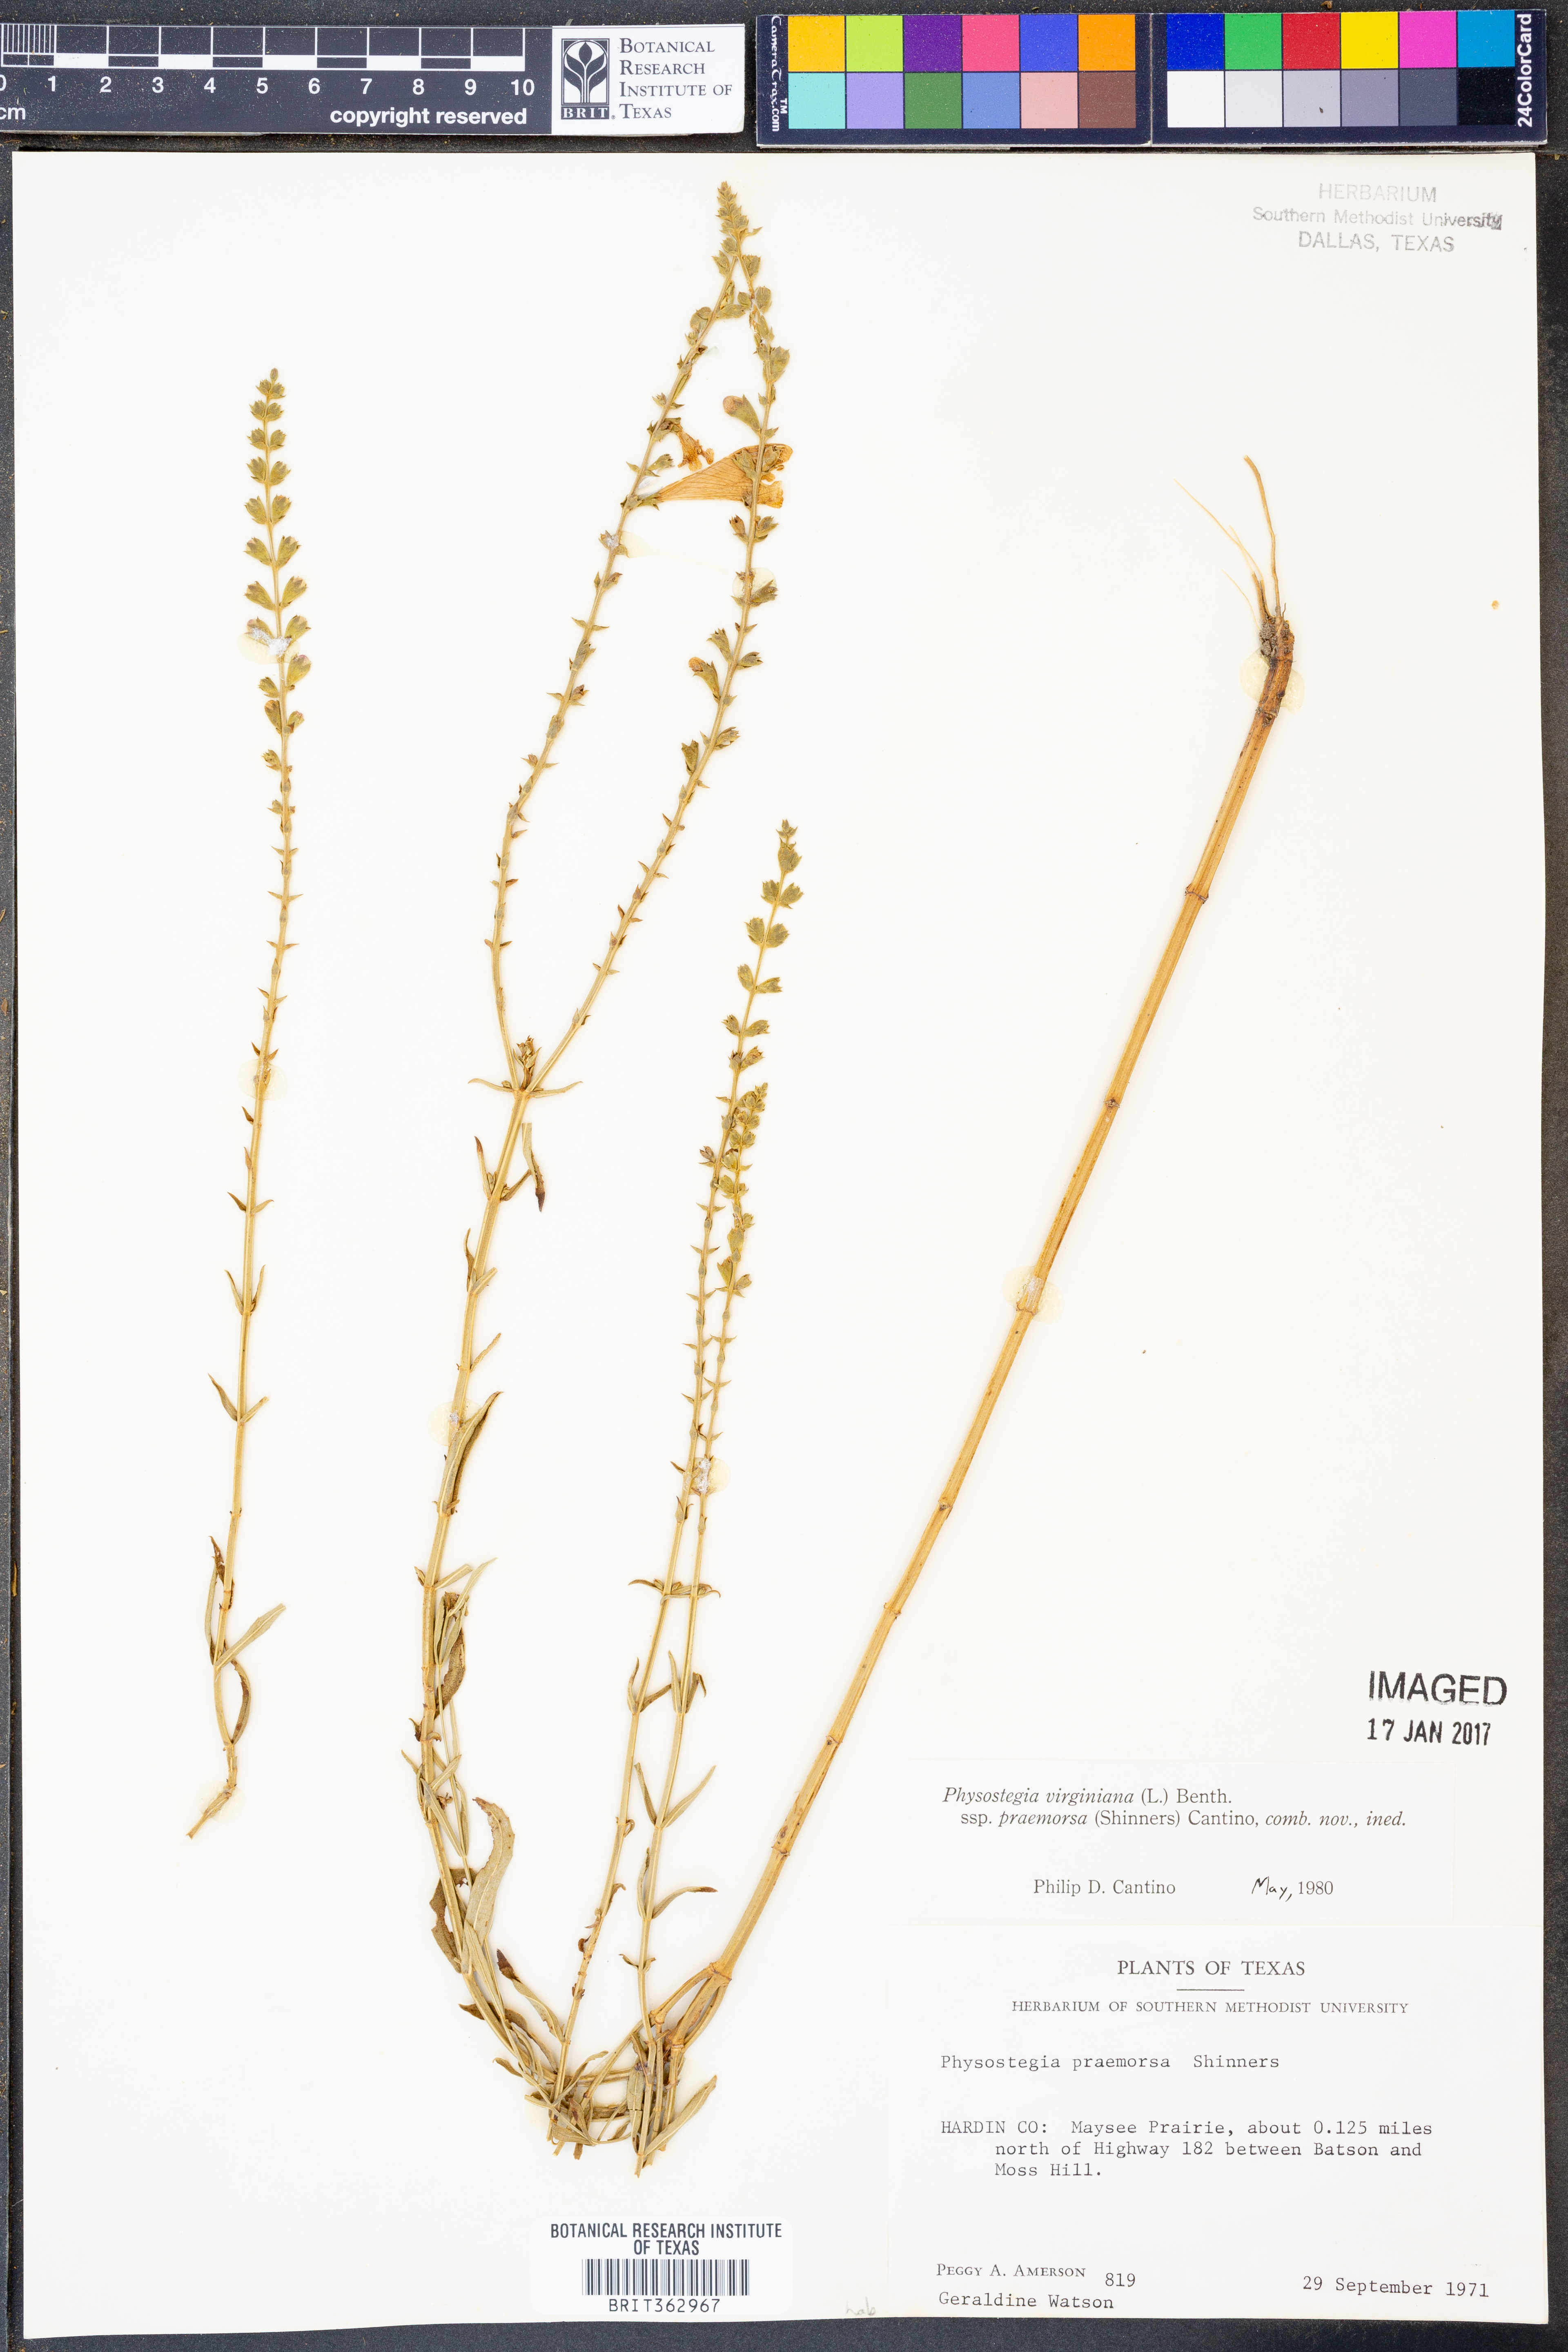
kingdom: Plantae
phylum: Tracheophyta
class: Magnoliopsida
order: Lamiales
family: Lamiaceae
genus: Physostegia
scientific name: Physostegia virginiana
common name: Obedient-plant
